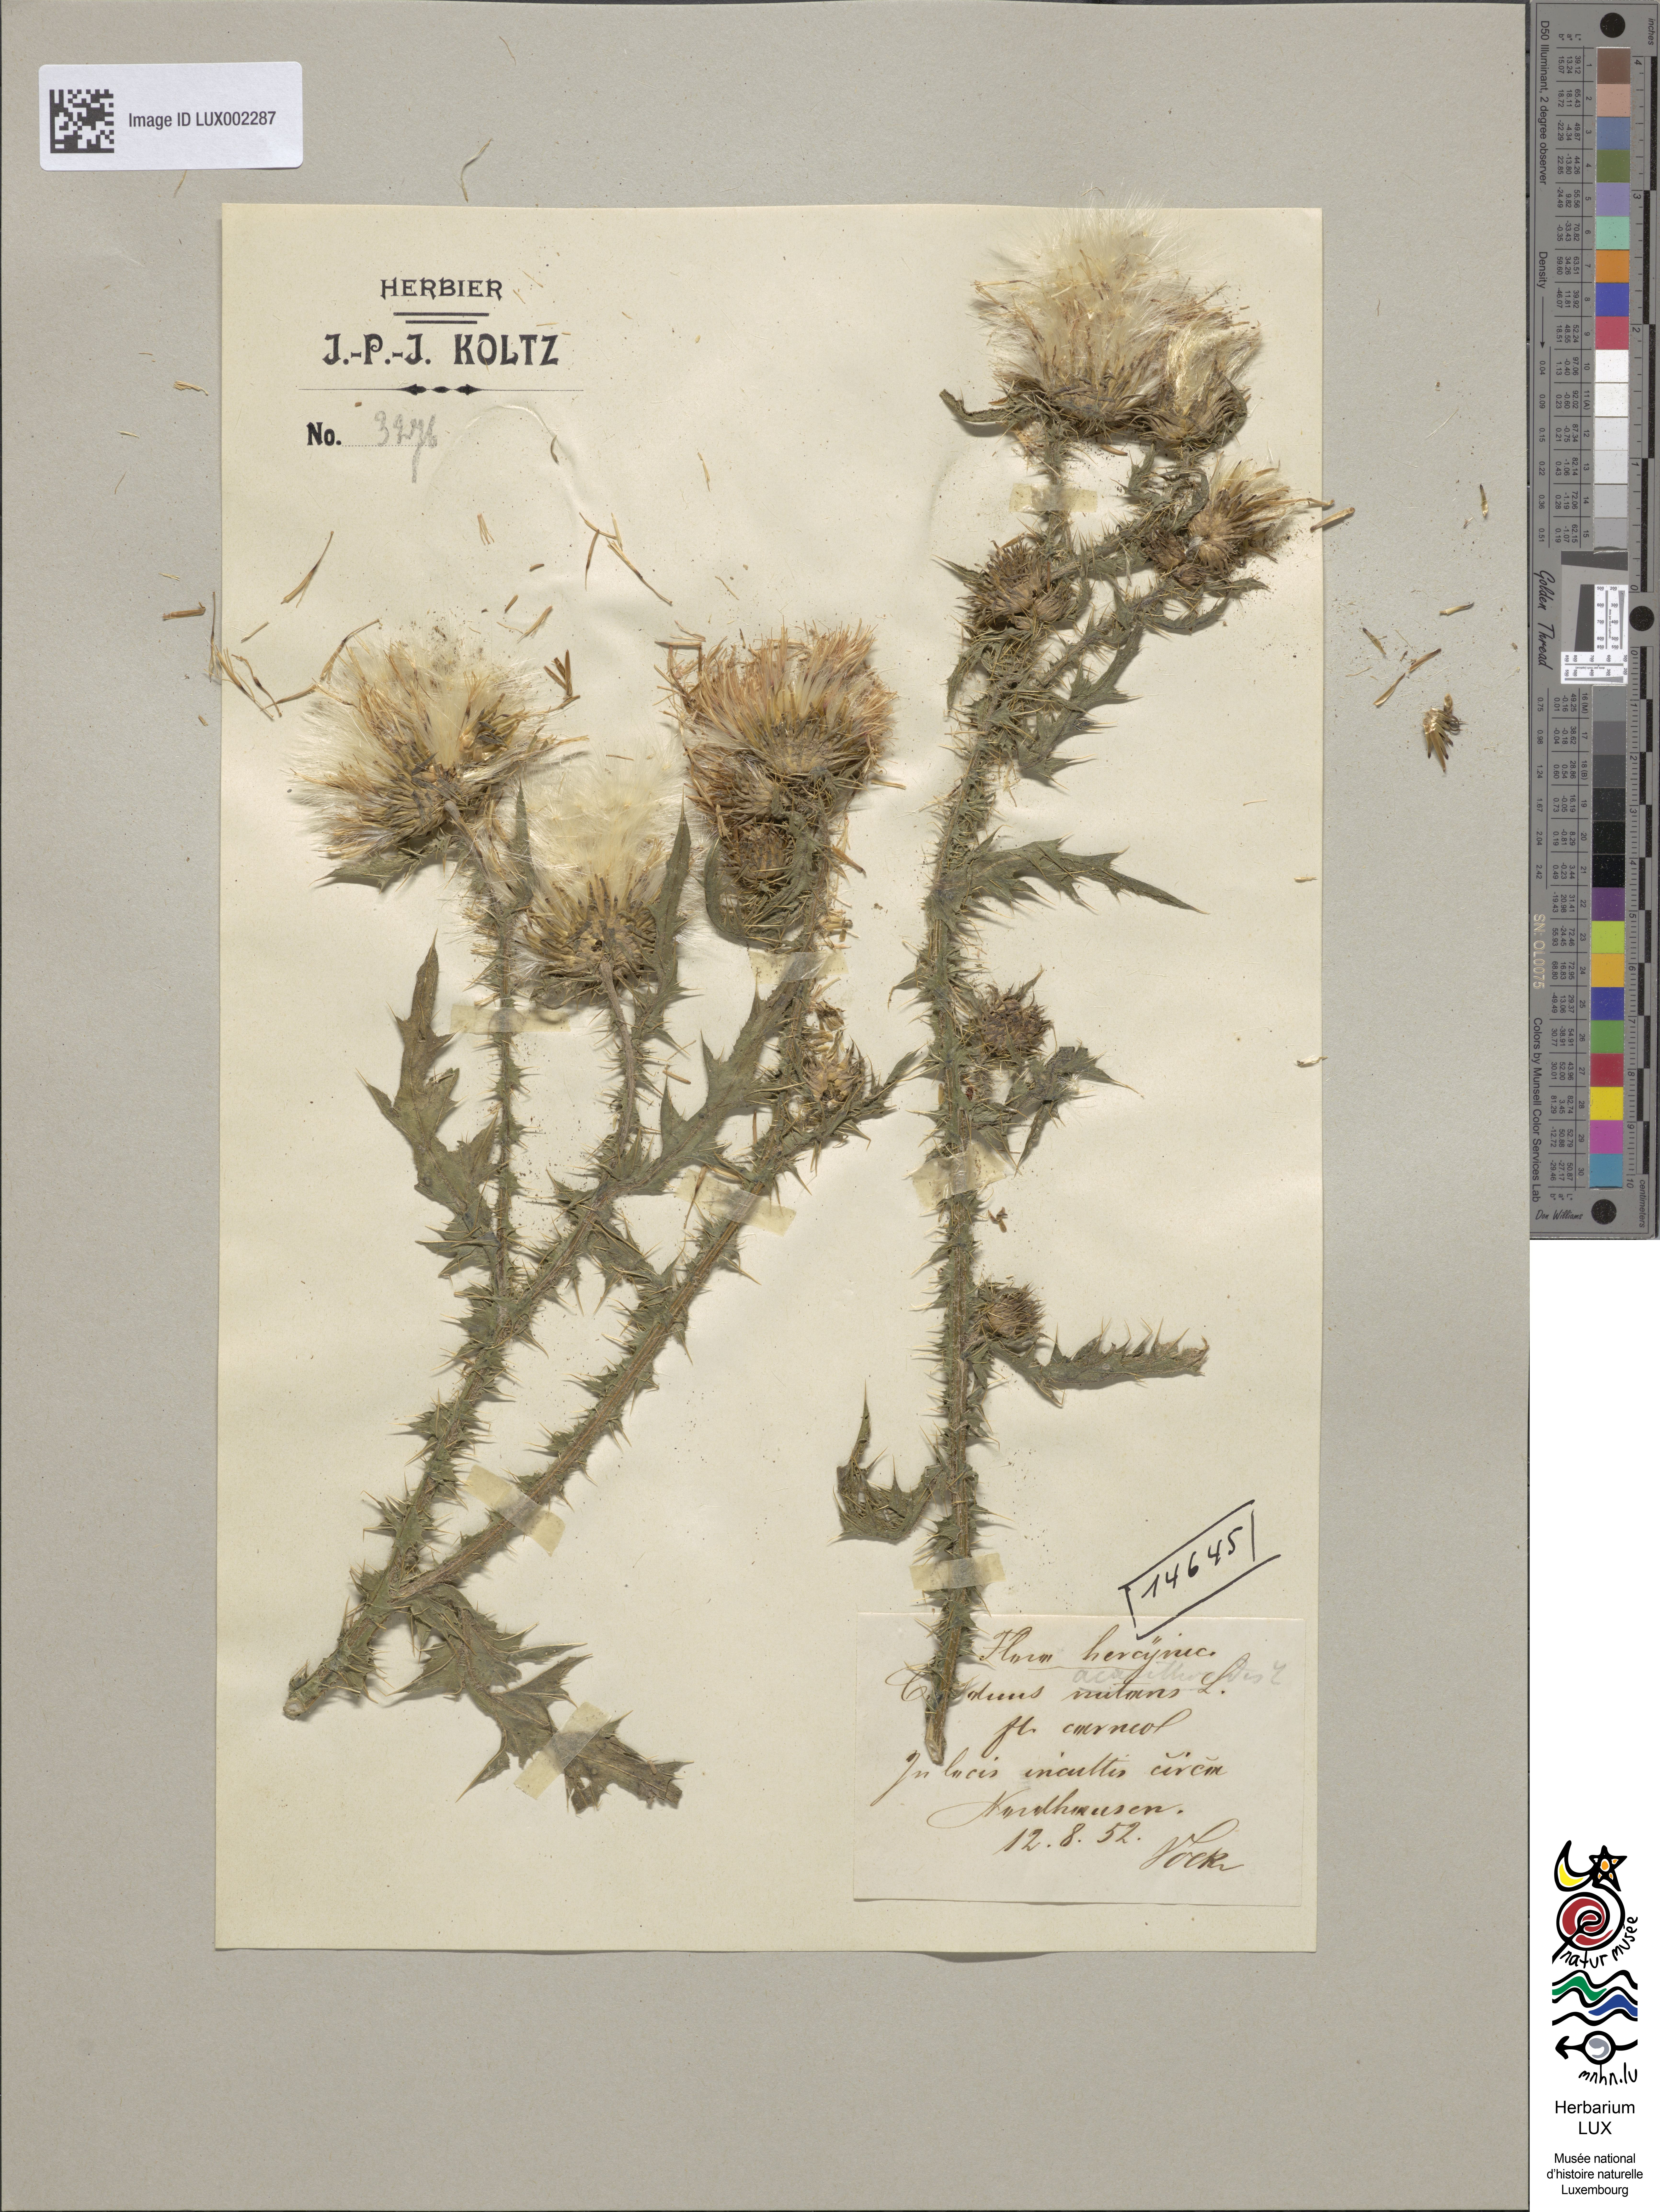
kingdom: Plantae
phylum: Tracheophyta
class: Magnoliopsida
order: Asterales
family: Asteraceae
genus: Carduus
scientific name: Carduus acanthoides
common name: Plumeless thistle
